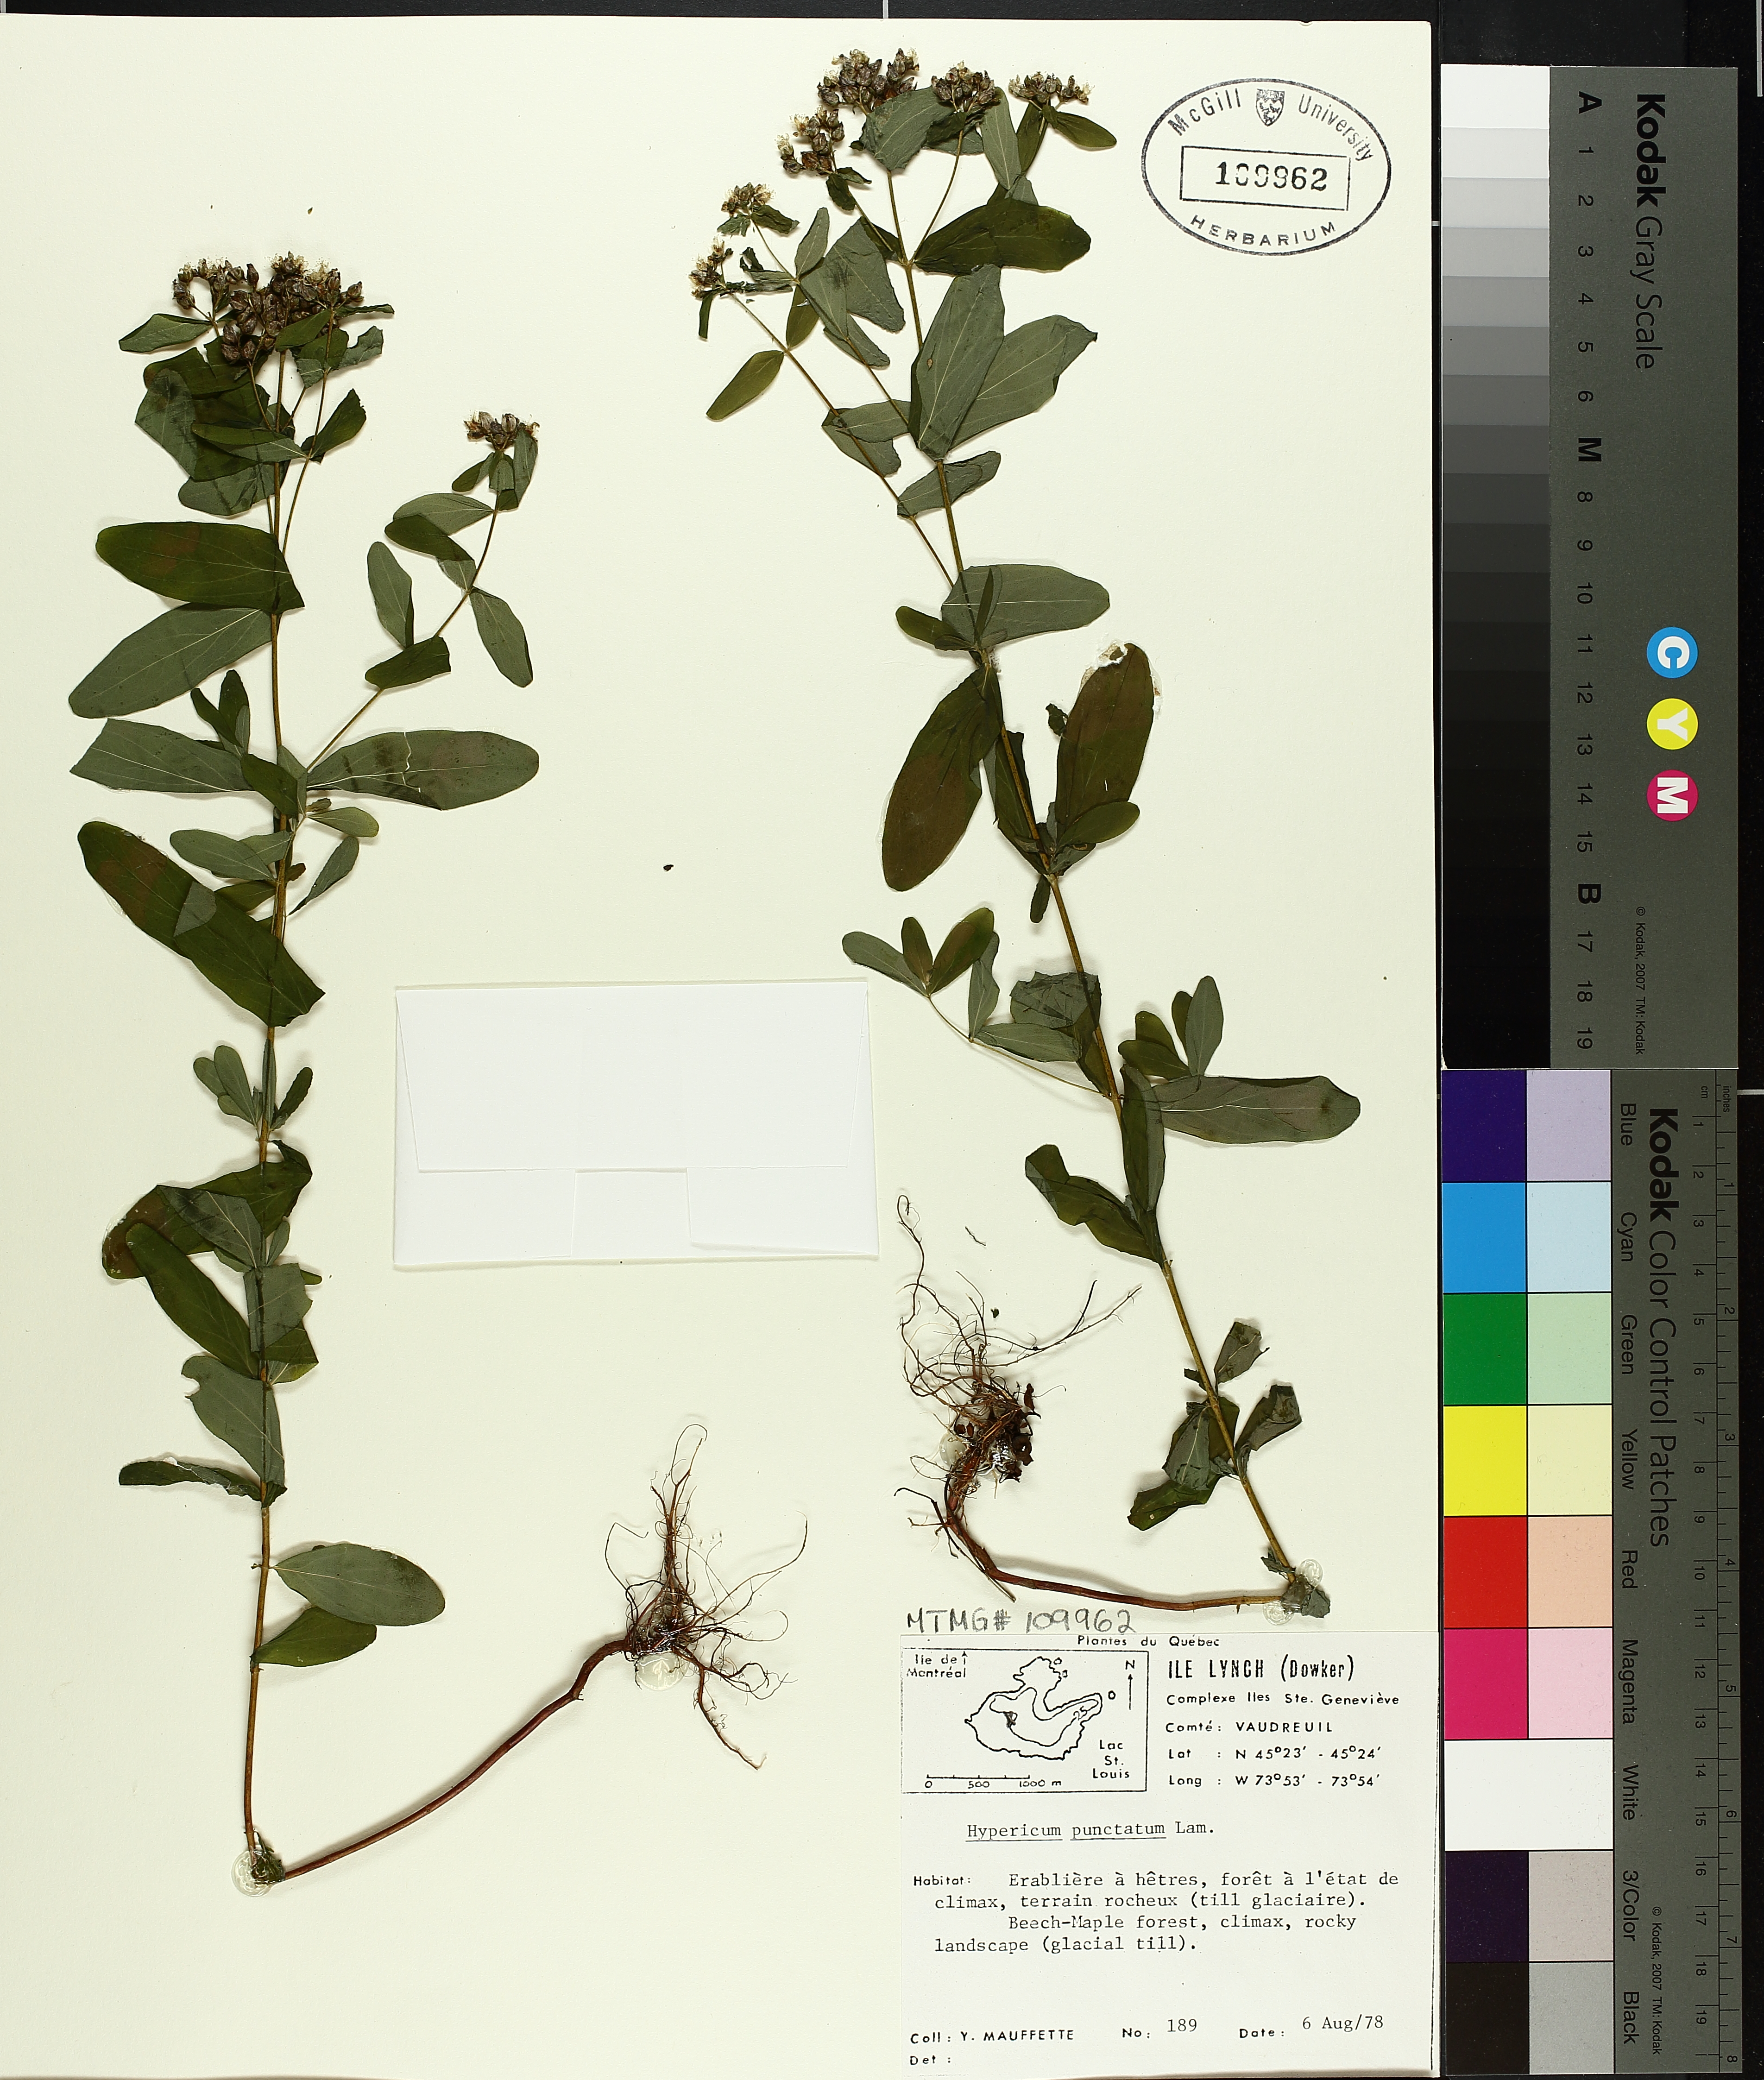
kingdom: Plantae
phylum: Tracheophyta
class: Magnoliopsida
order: Malpighiales
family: Hypericaceae
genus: Hypericum
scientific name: Hypericum punctatum
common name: Spotted st. john's-wort
